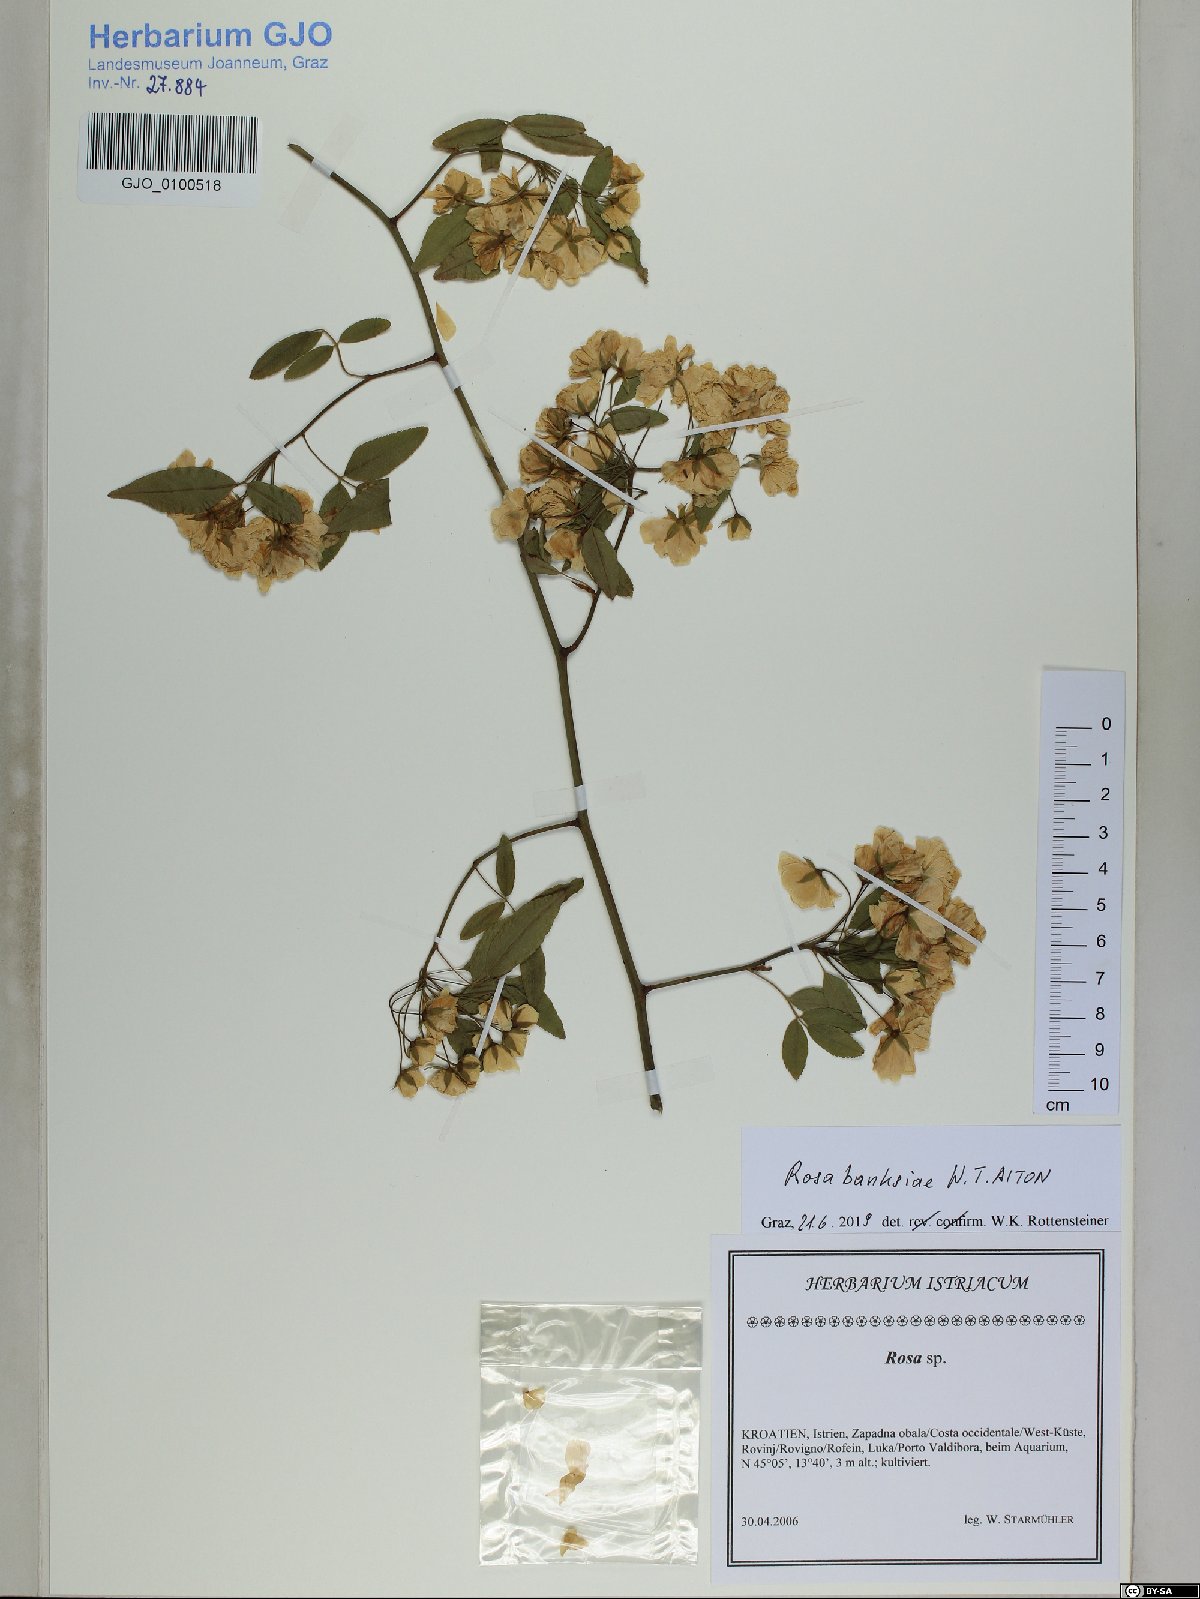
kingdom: Plantae
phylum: Tracheophyta
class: Magnoliopsida
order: Rosales
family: Rosaceae
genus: Rosa
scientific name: Rosa banksiae
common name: Banksian rose
